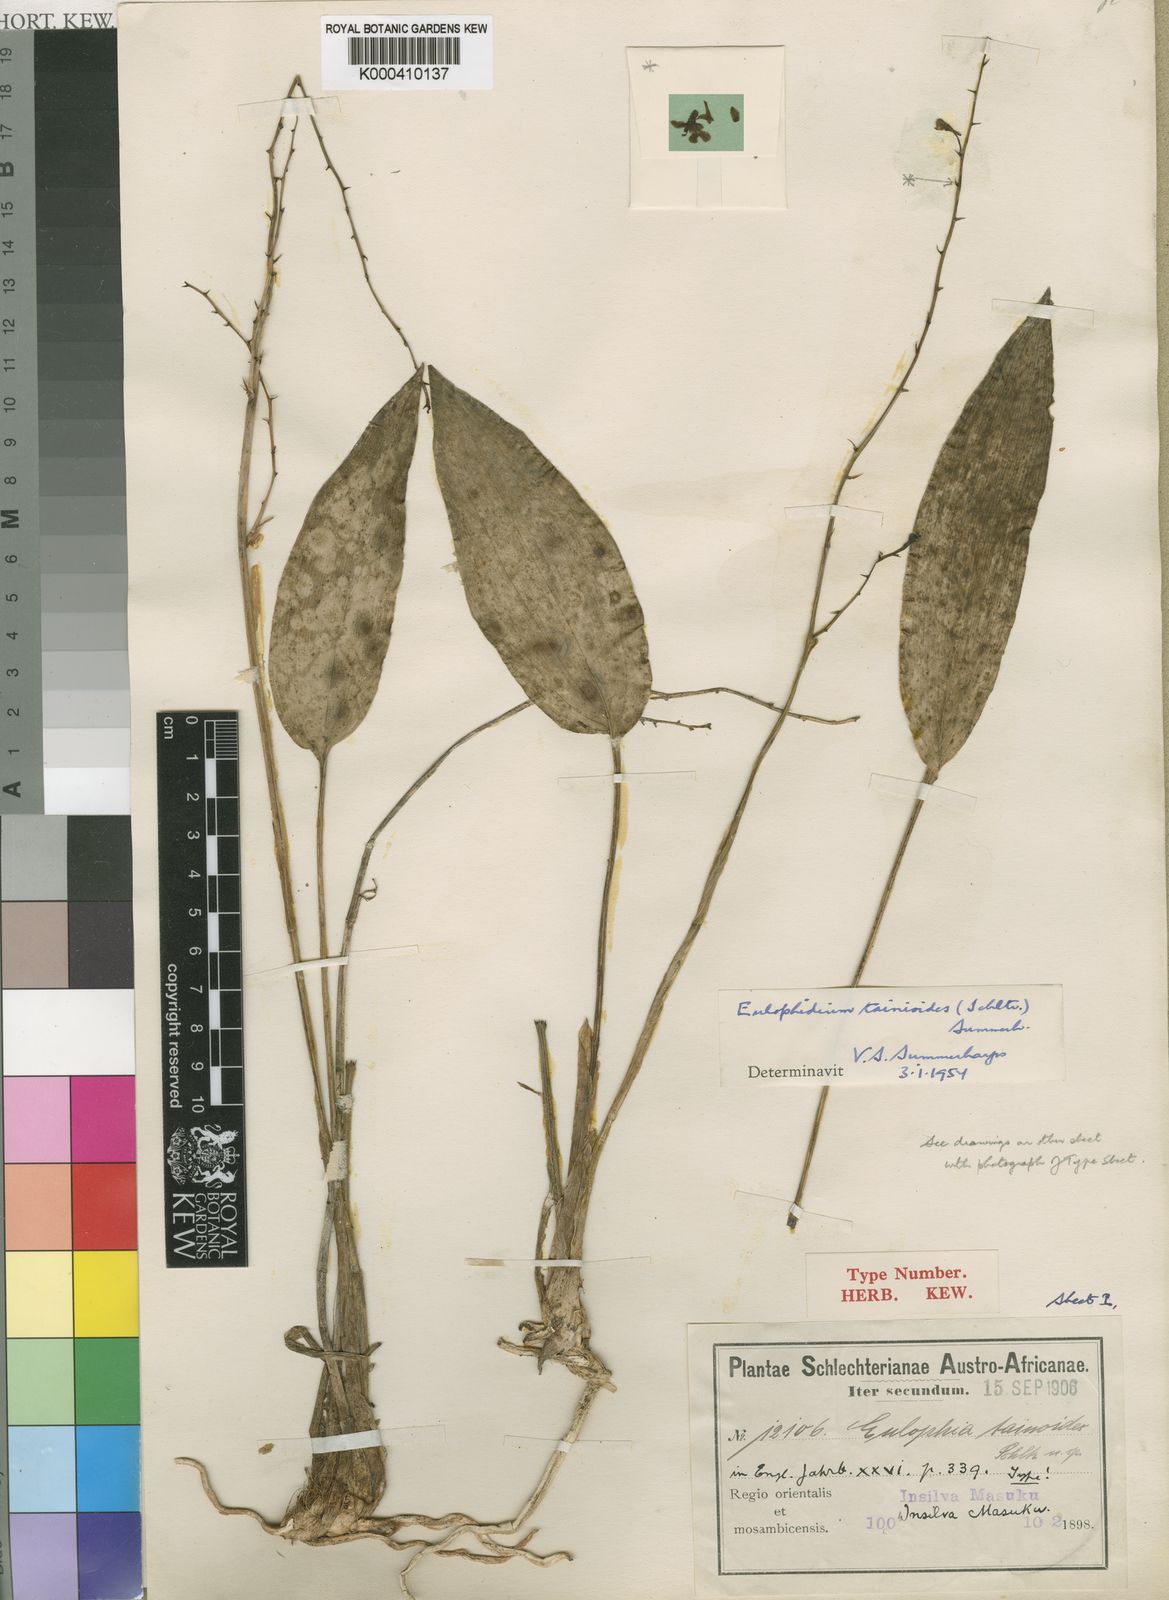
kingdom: Plantae
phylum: Tracheophyta
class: Liliopsida
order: Asparagales
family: Orchidaceae
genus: Eulophia
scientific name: Eulophia
